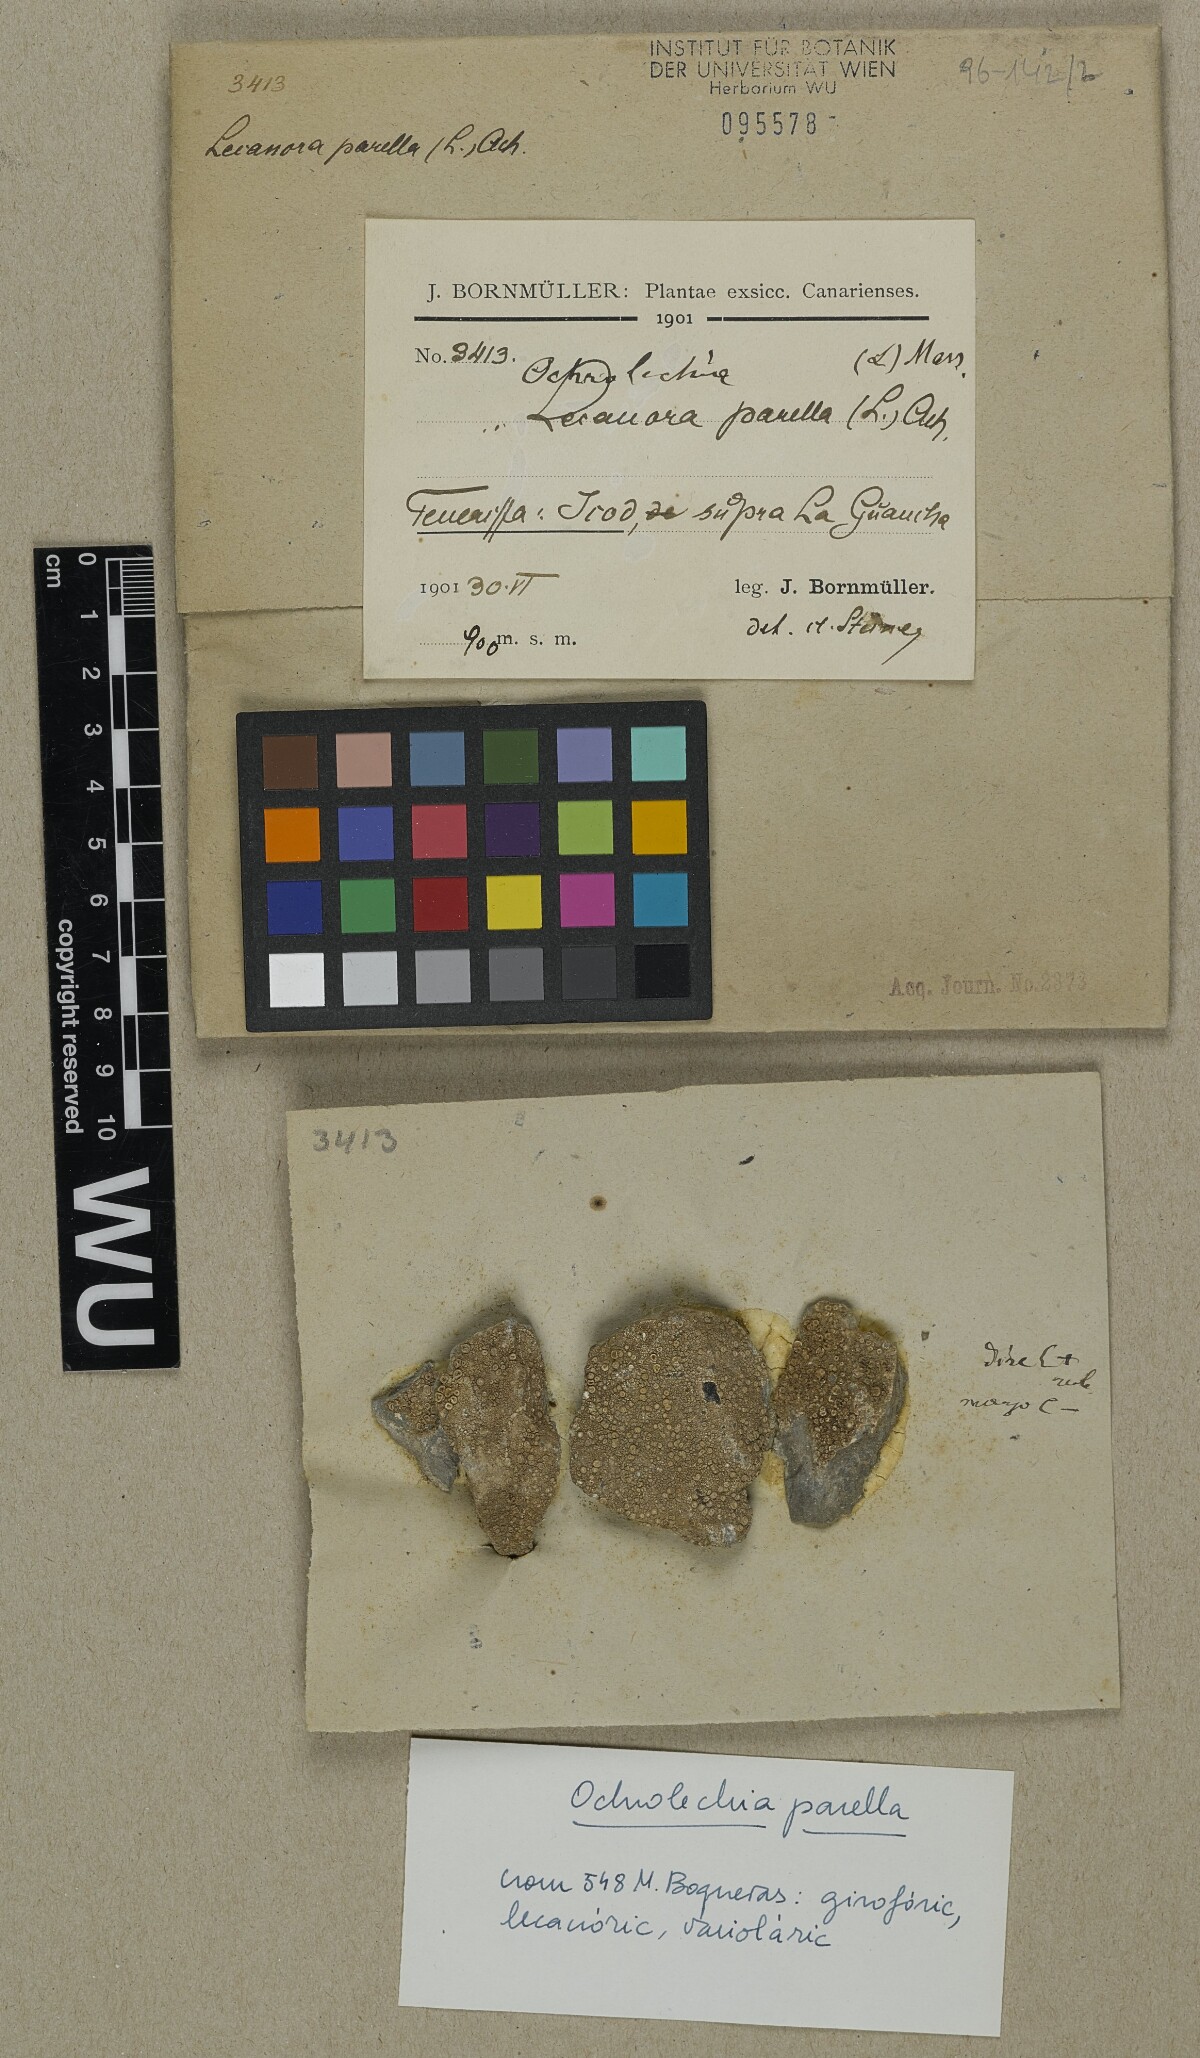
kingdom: Fungi
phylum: Ascomycota
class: Lecanoromycetes
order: Pertusariales
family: Ochrolechiaceae
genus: Ochrolechia
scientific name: Ochrolechia parella
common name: Crab's eye lichen
